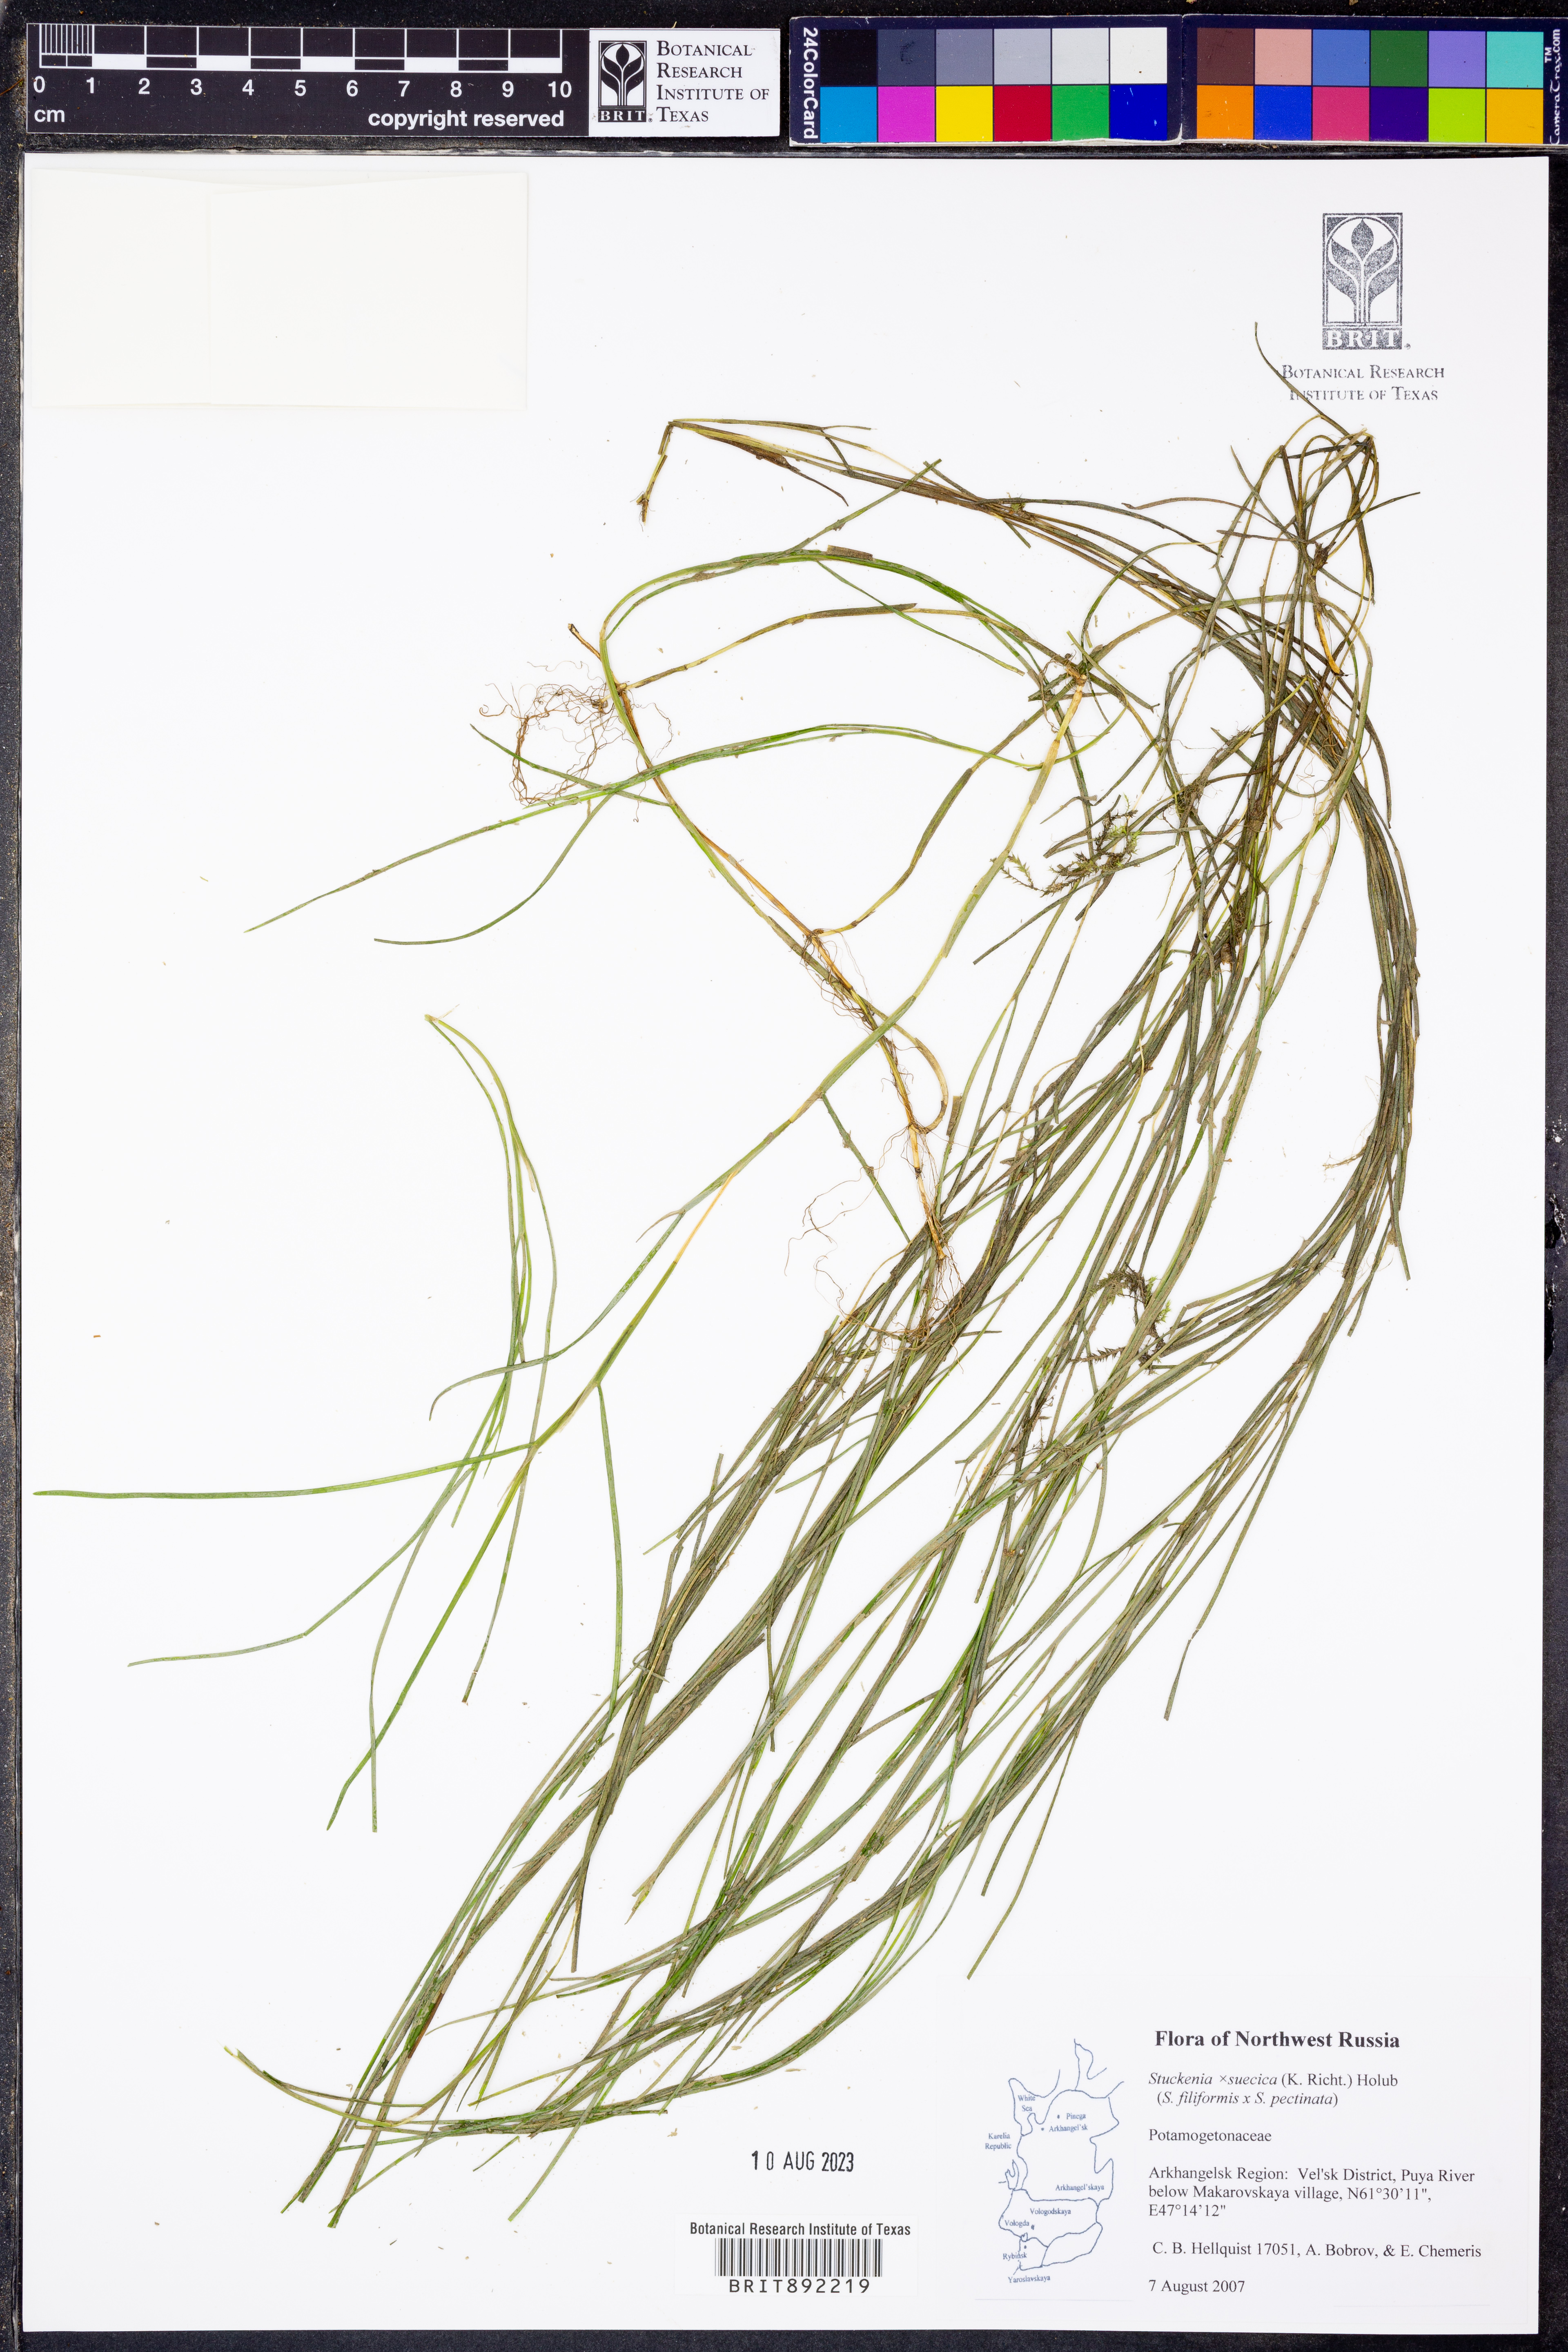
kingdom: Plantae
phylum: Tracheophyta
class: Liliopsida
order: Alismatales
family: Potamogetonaceae
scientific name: Potamogetonaceae
